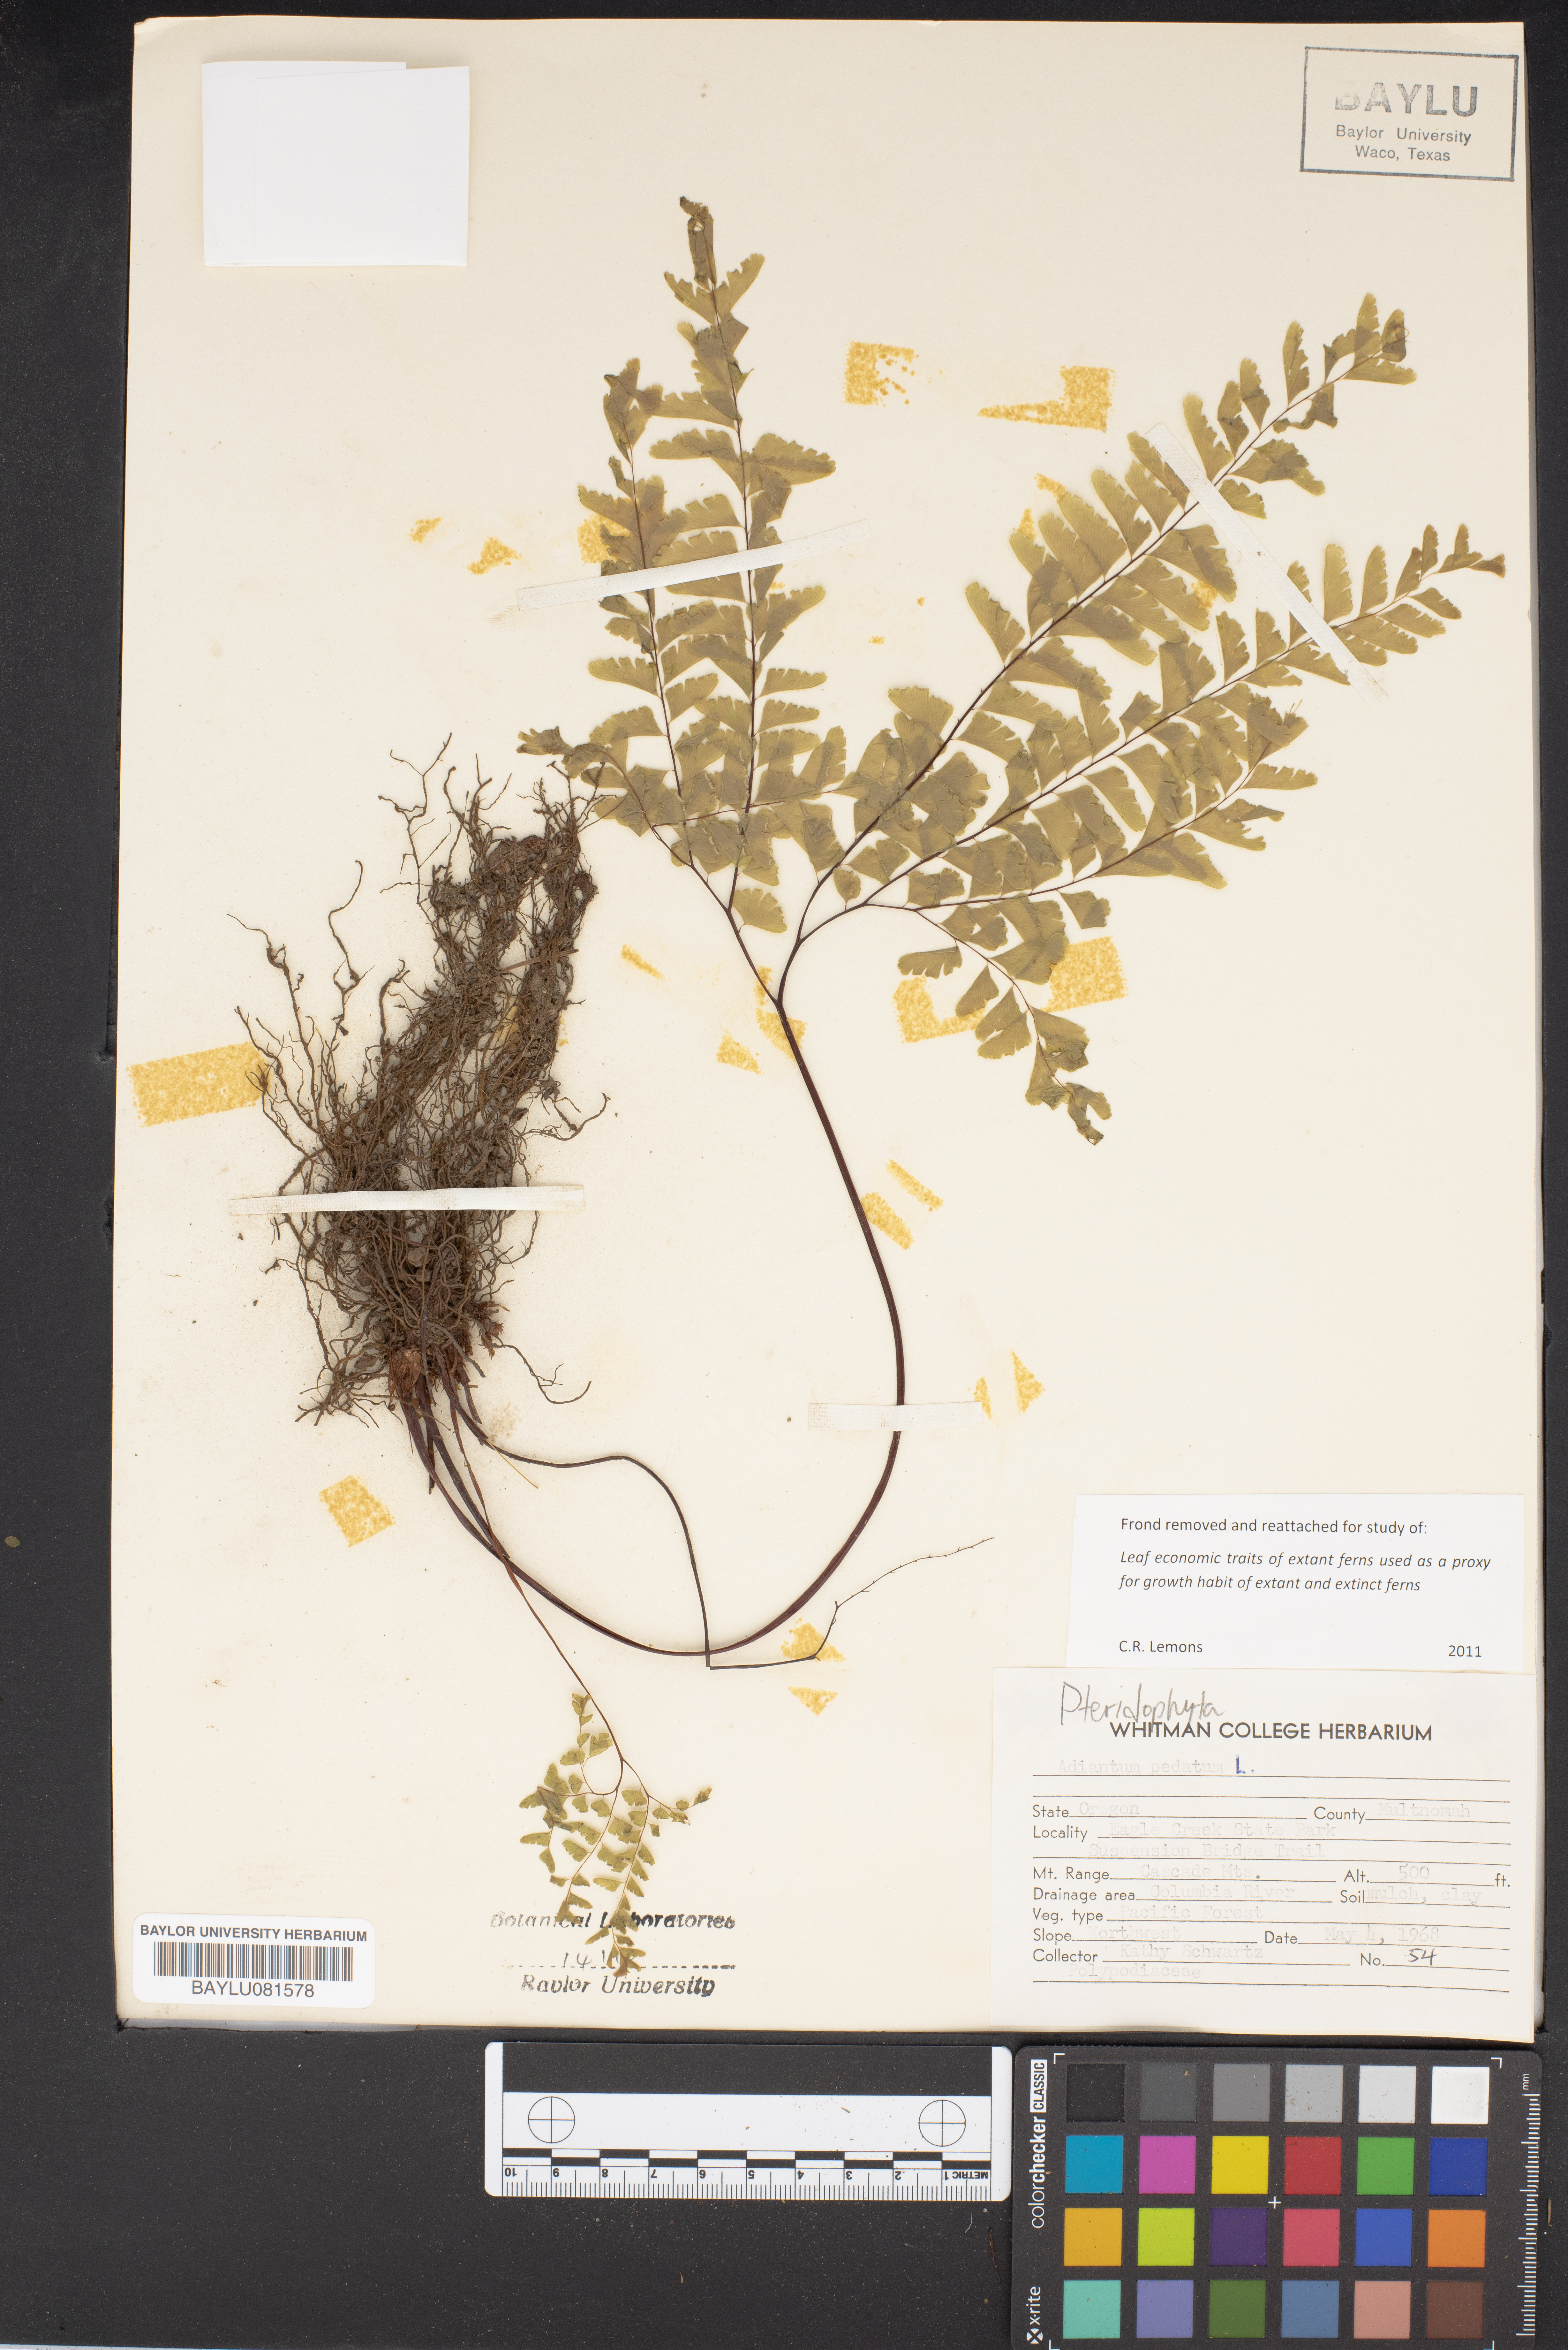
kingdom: Plantae
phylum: Tracheophyta
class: Polypodiopsida
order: Polypodiales
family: Pteridaceae
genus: Adiantum
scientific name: Adiantum pedatum
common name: Five-finger fern
